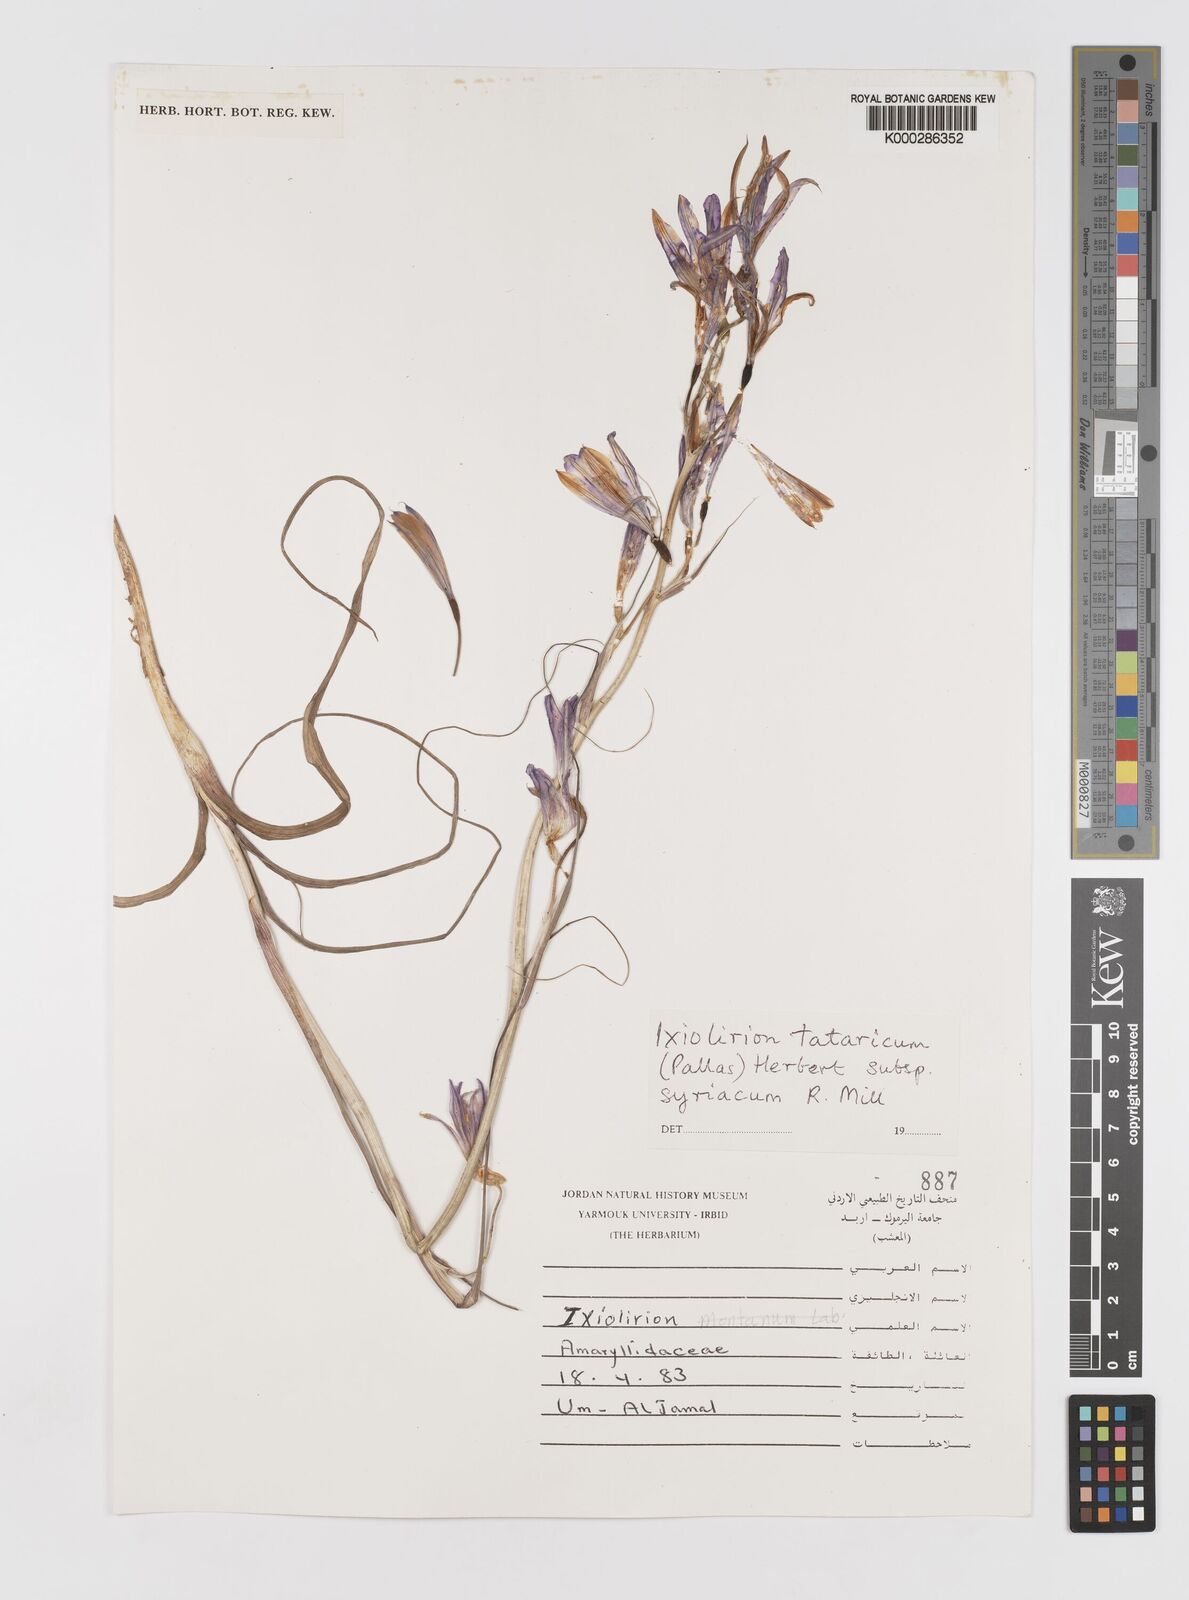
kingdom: Plantae
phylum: Tracheophyta
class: Liliopsida
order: Asparagales
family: Ixioliriaceae
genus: Ixiolirion
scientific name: Ixiolirion tataricum
